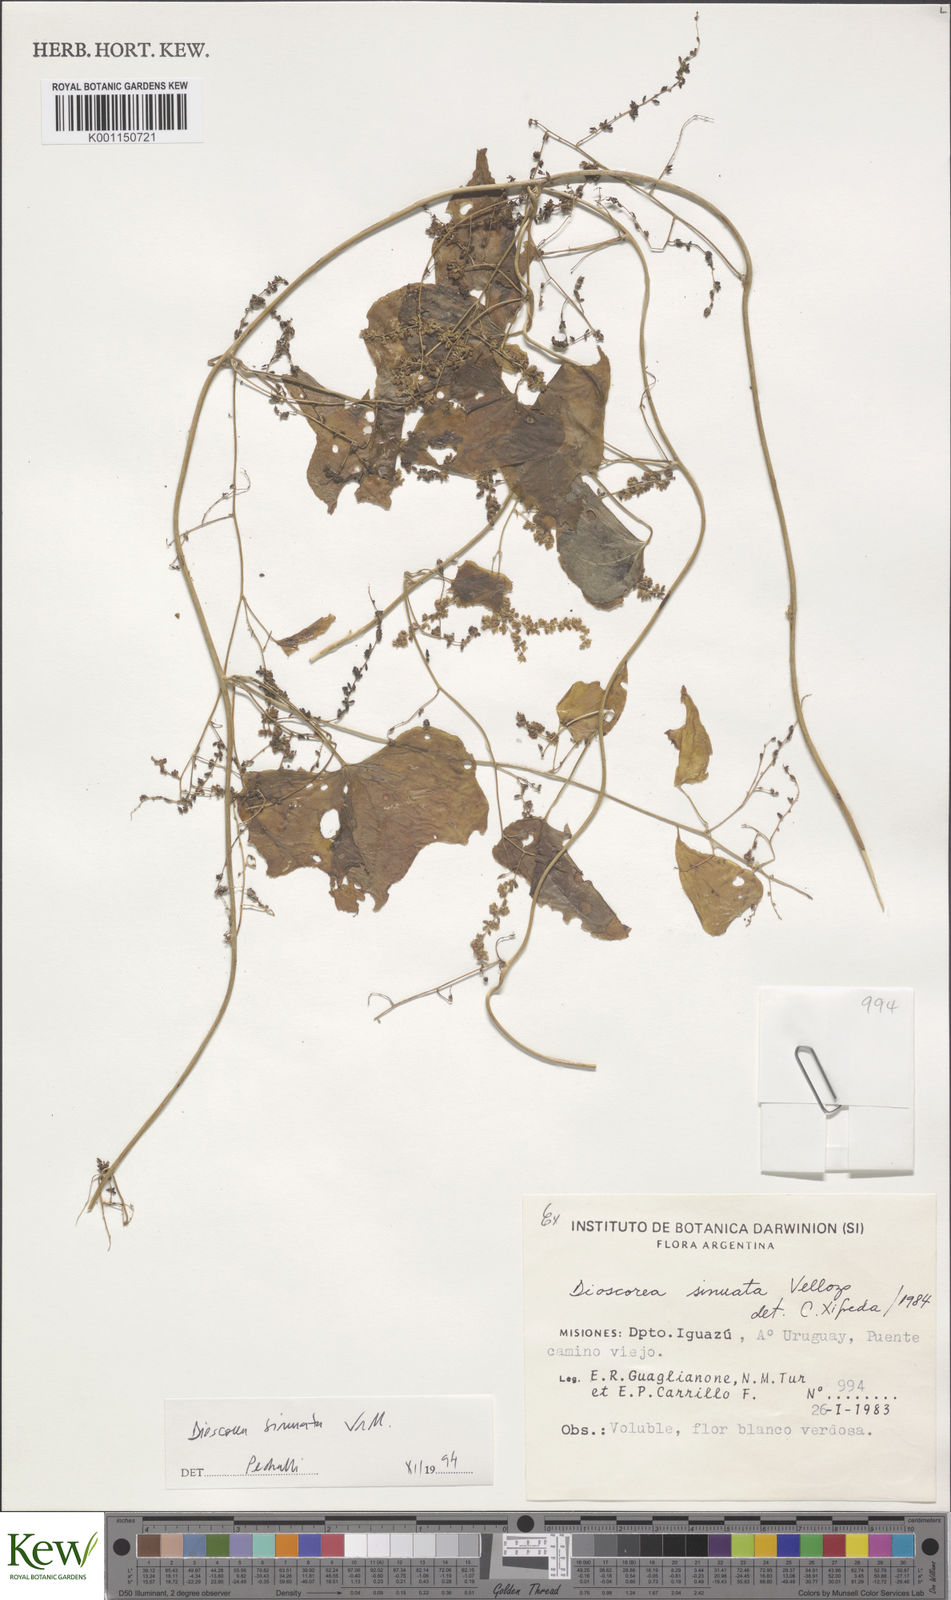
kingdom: Plantae
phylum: Tracheophyta
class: Liliopsida
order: Dioscoreales
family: Dioscoreaceae
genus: Dioscorea
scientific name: Dioscorea sinuata
